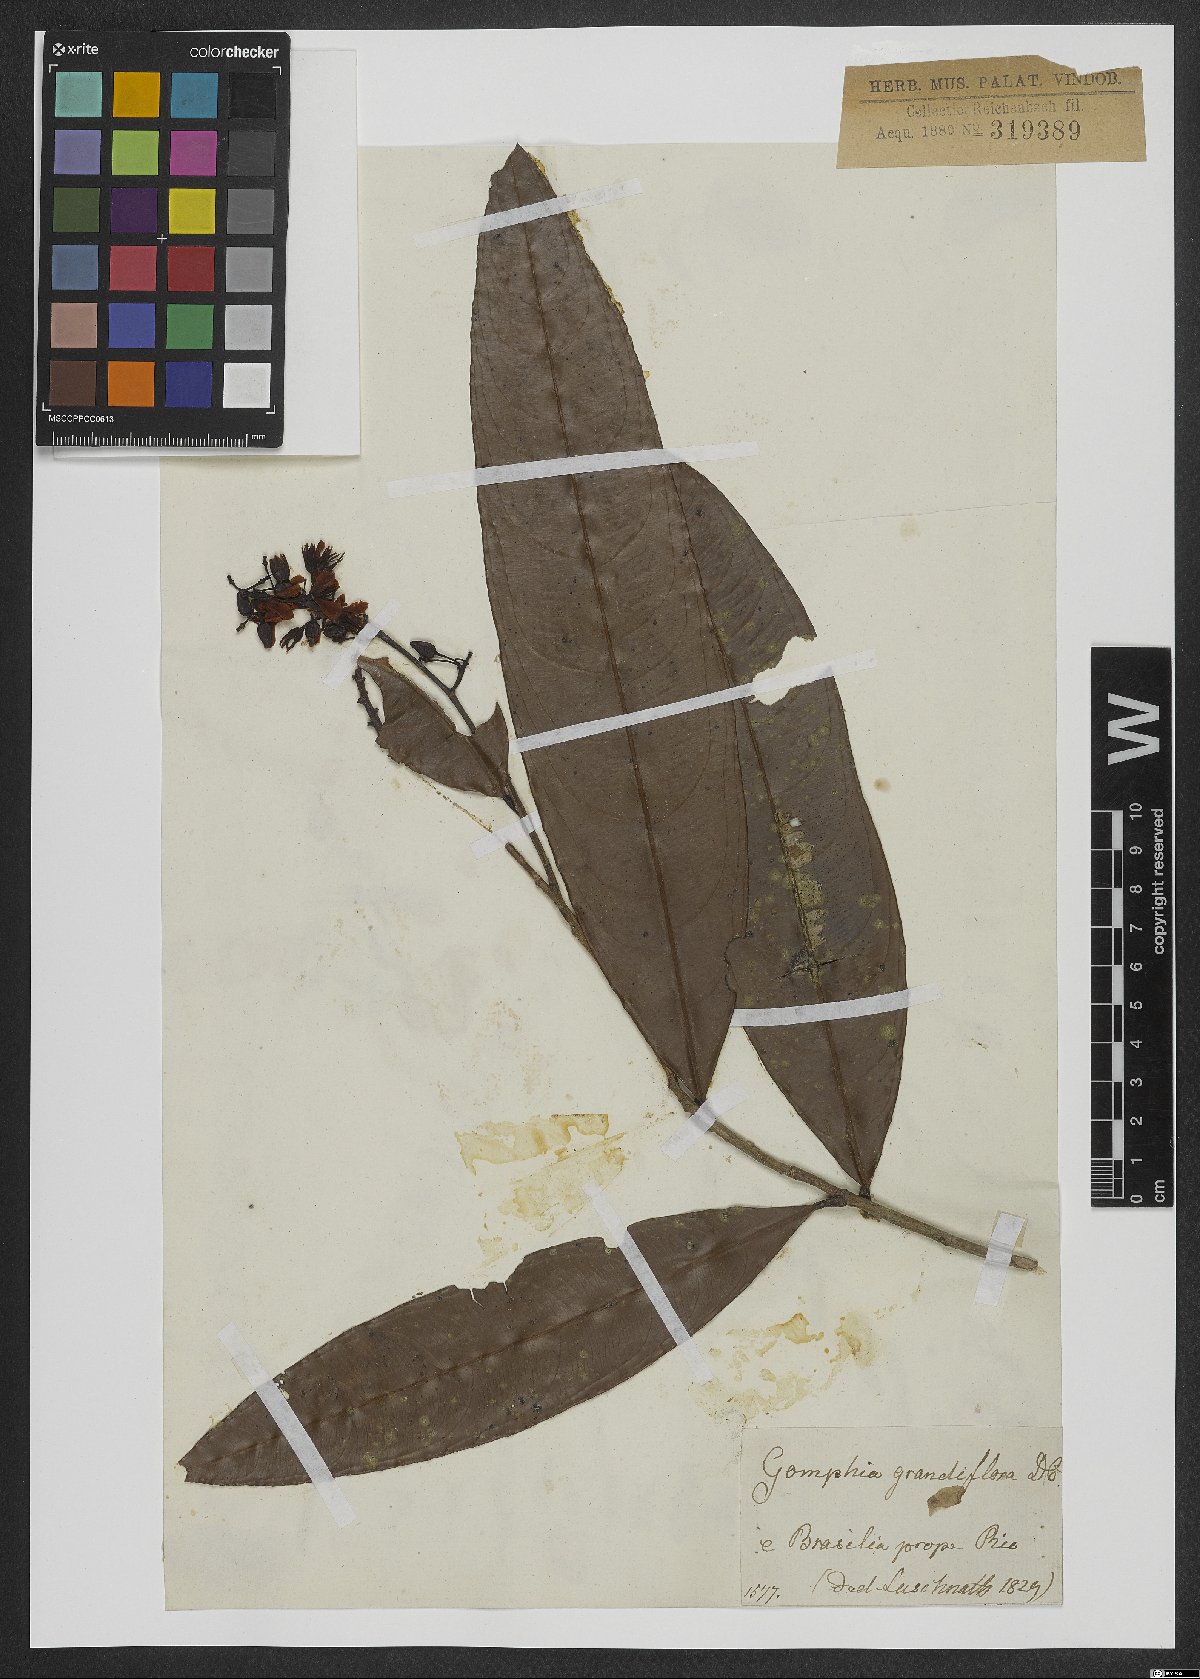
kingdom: Plantae
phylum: Tracheophyta
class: Magnoliopsida
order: Malpighiales
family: Ochnaceae
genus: Ouratea
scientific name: Ouratea grandifolia
